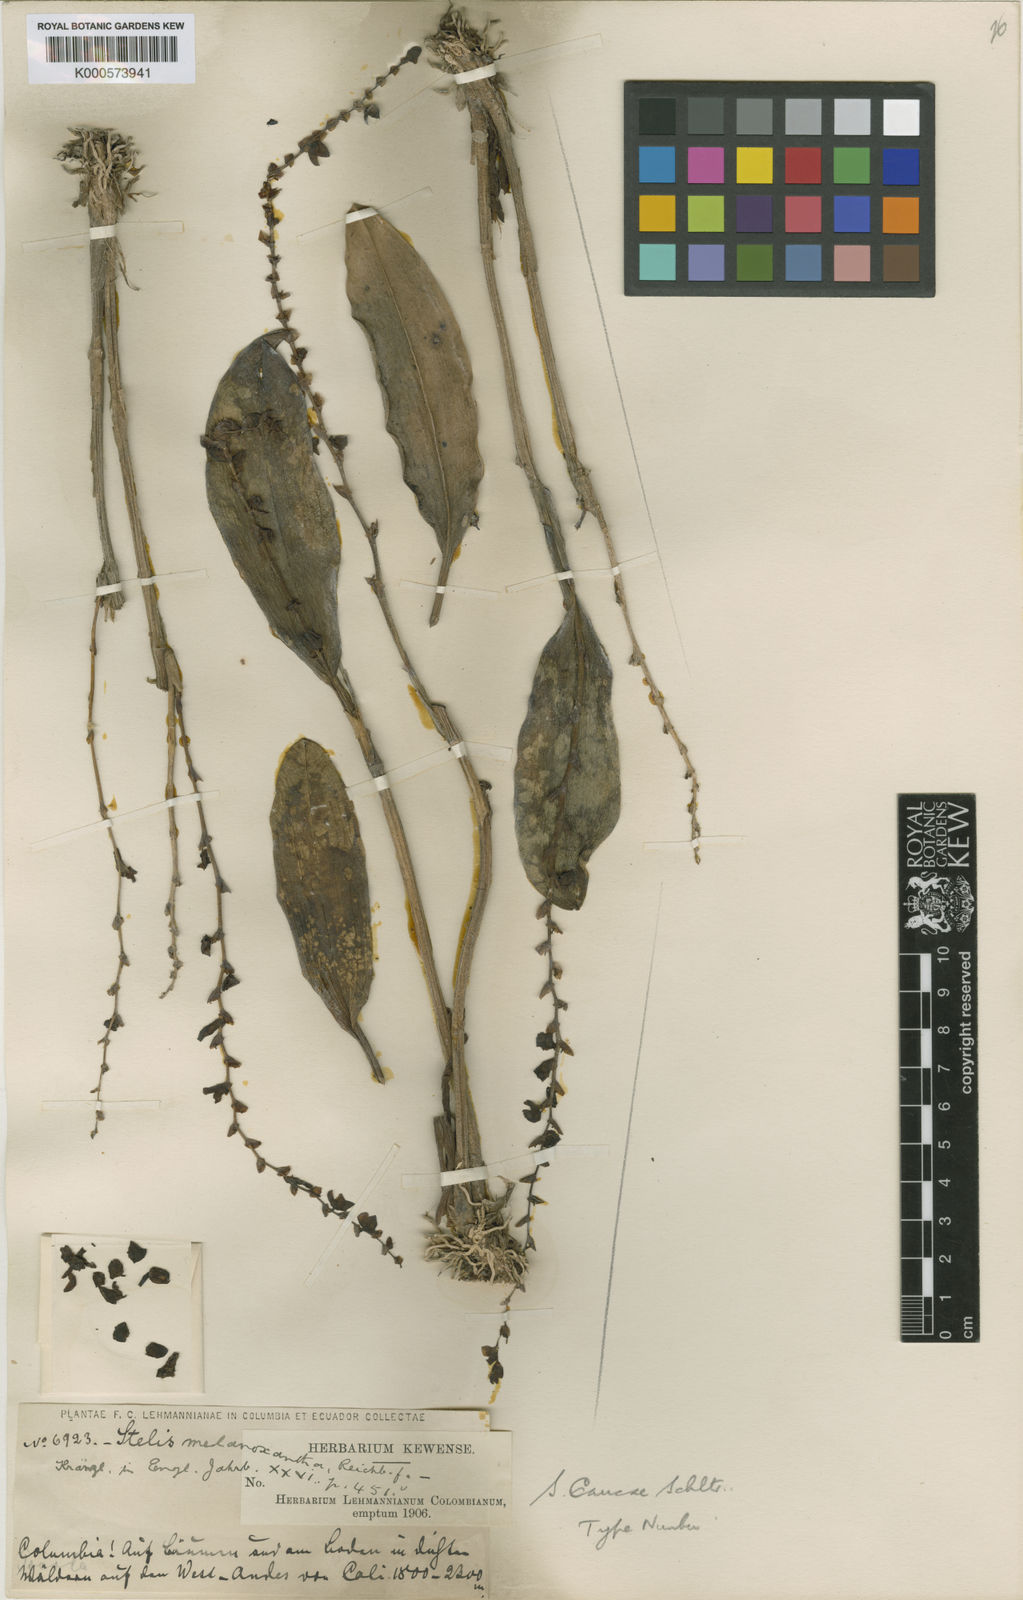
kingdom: Plantae
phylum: Tracheophyta
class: Liliopsida
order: Asparagales
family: Orchidaceae
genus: Stelis
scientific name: Stelis melanoxantha
